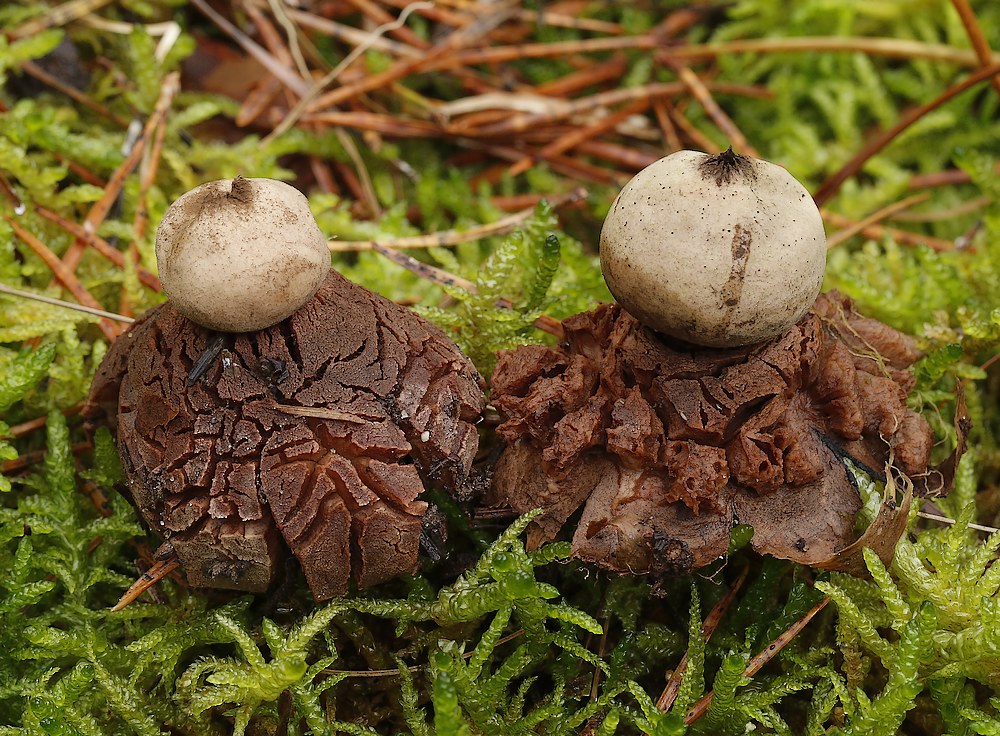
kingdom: Fungi
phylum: Basidiomycota
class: Agaricomycetes
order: Geastrales
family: Geastraceae
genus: Geastrum
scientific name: Geastrum rufescens
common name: kødfarvet stjernebold
